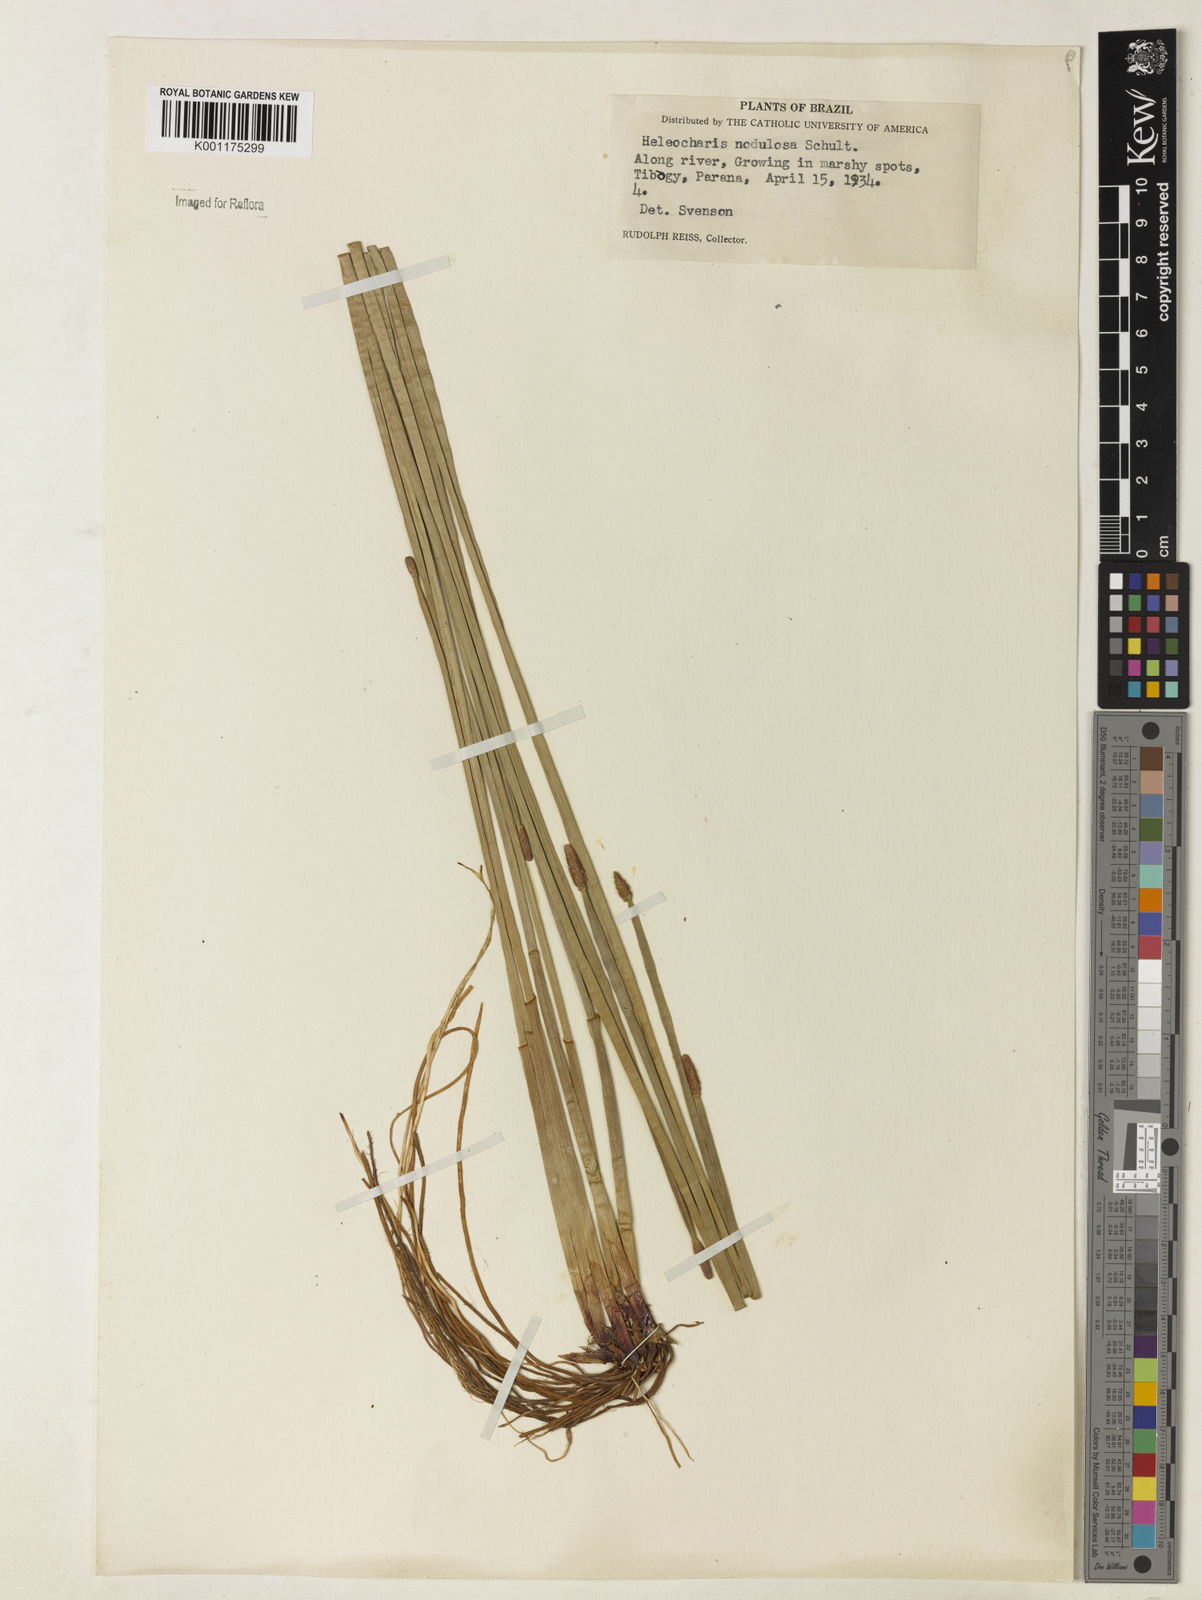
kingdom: Plantae
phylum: Tracheophyta
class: Liliopsida
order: Poales
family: Cyperaceae
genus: Eleocharis
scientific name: Eleocharis montana
